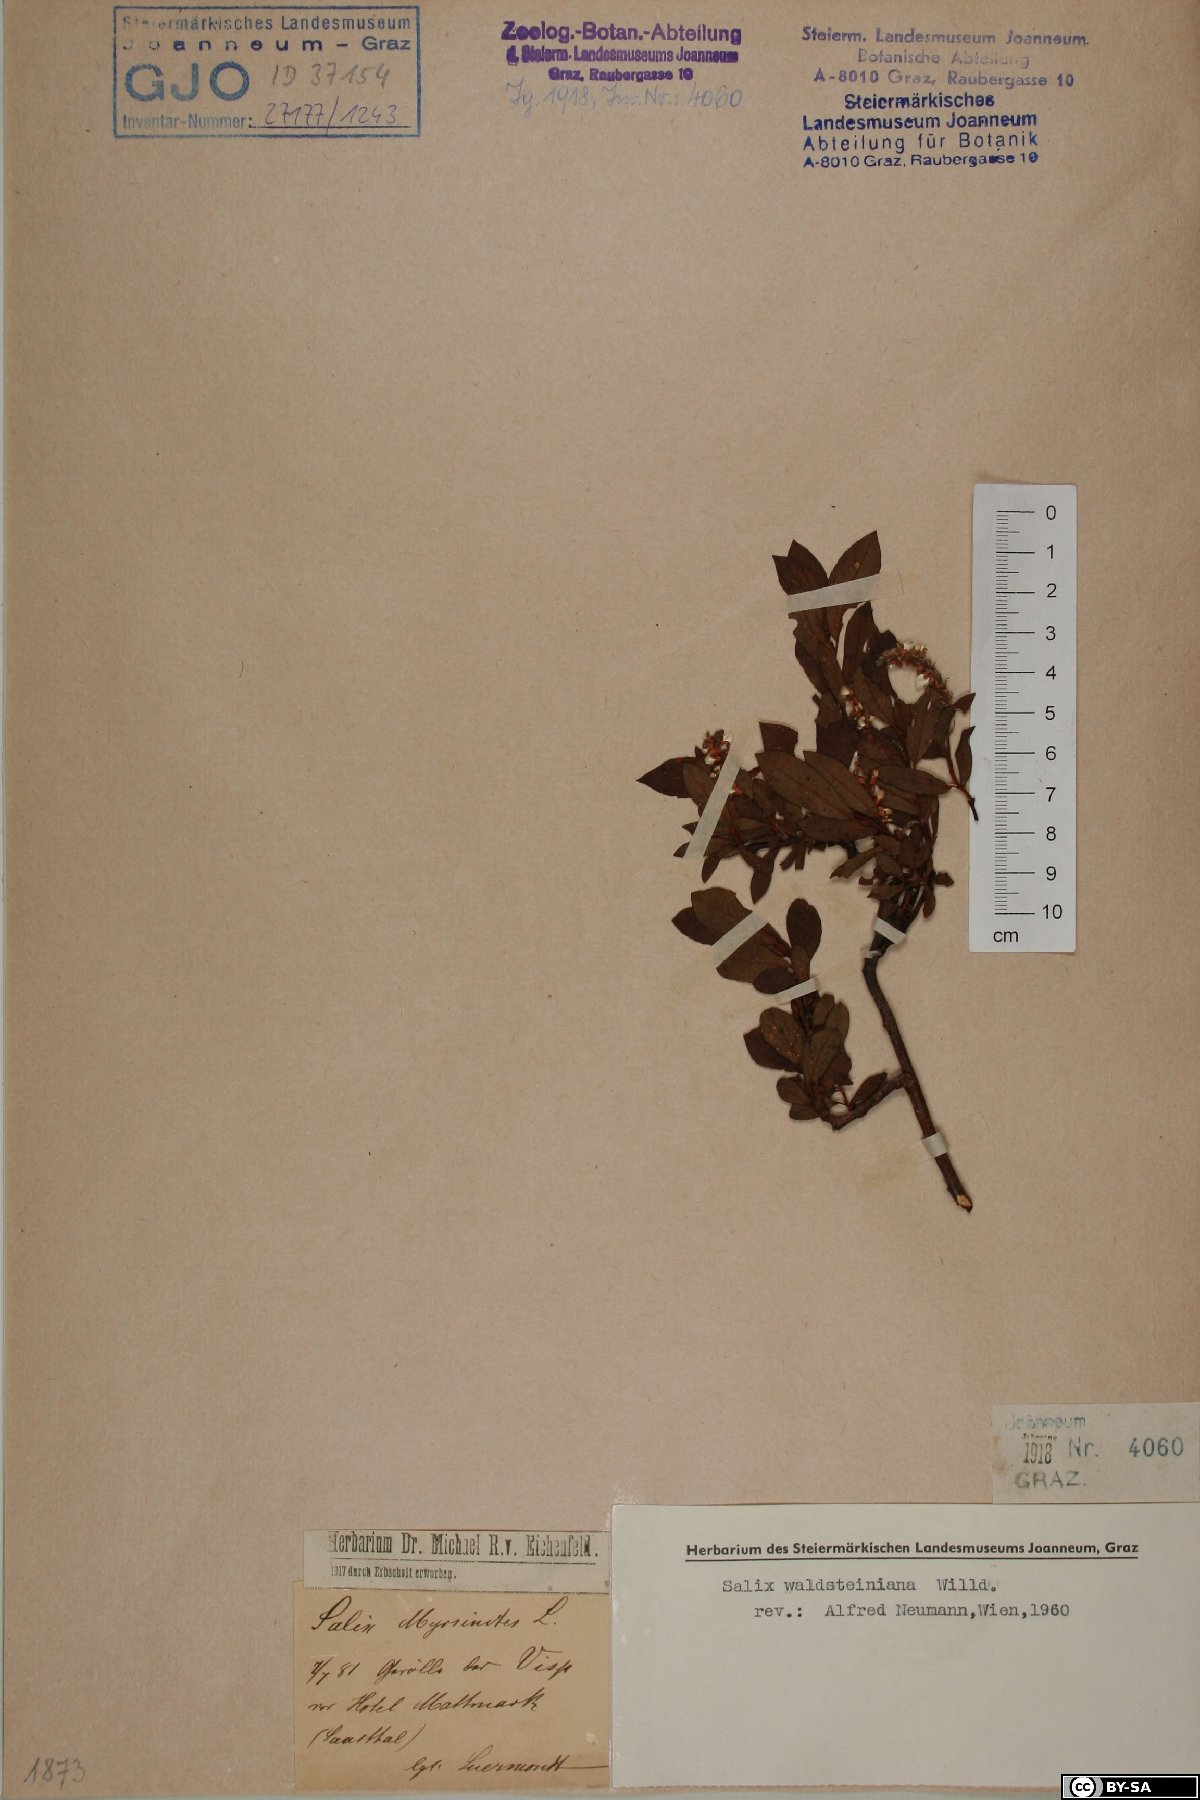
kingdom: Plantae
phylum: Tracheophyta
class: Magnoliopsida
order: Malpighiales
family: Salicaceae
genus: Salix
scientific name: Salix waldsteiniana
